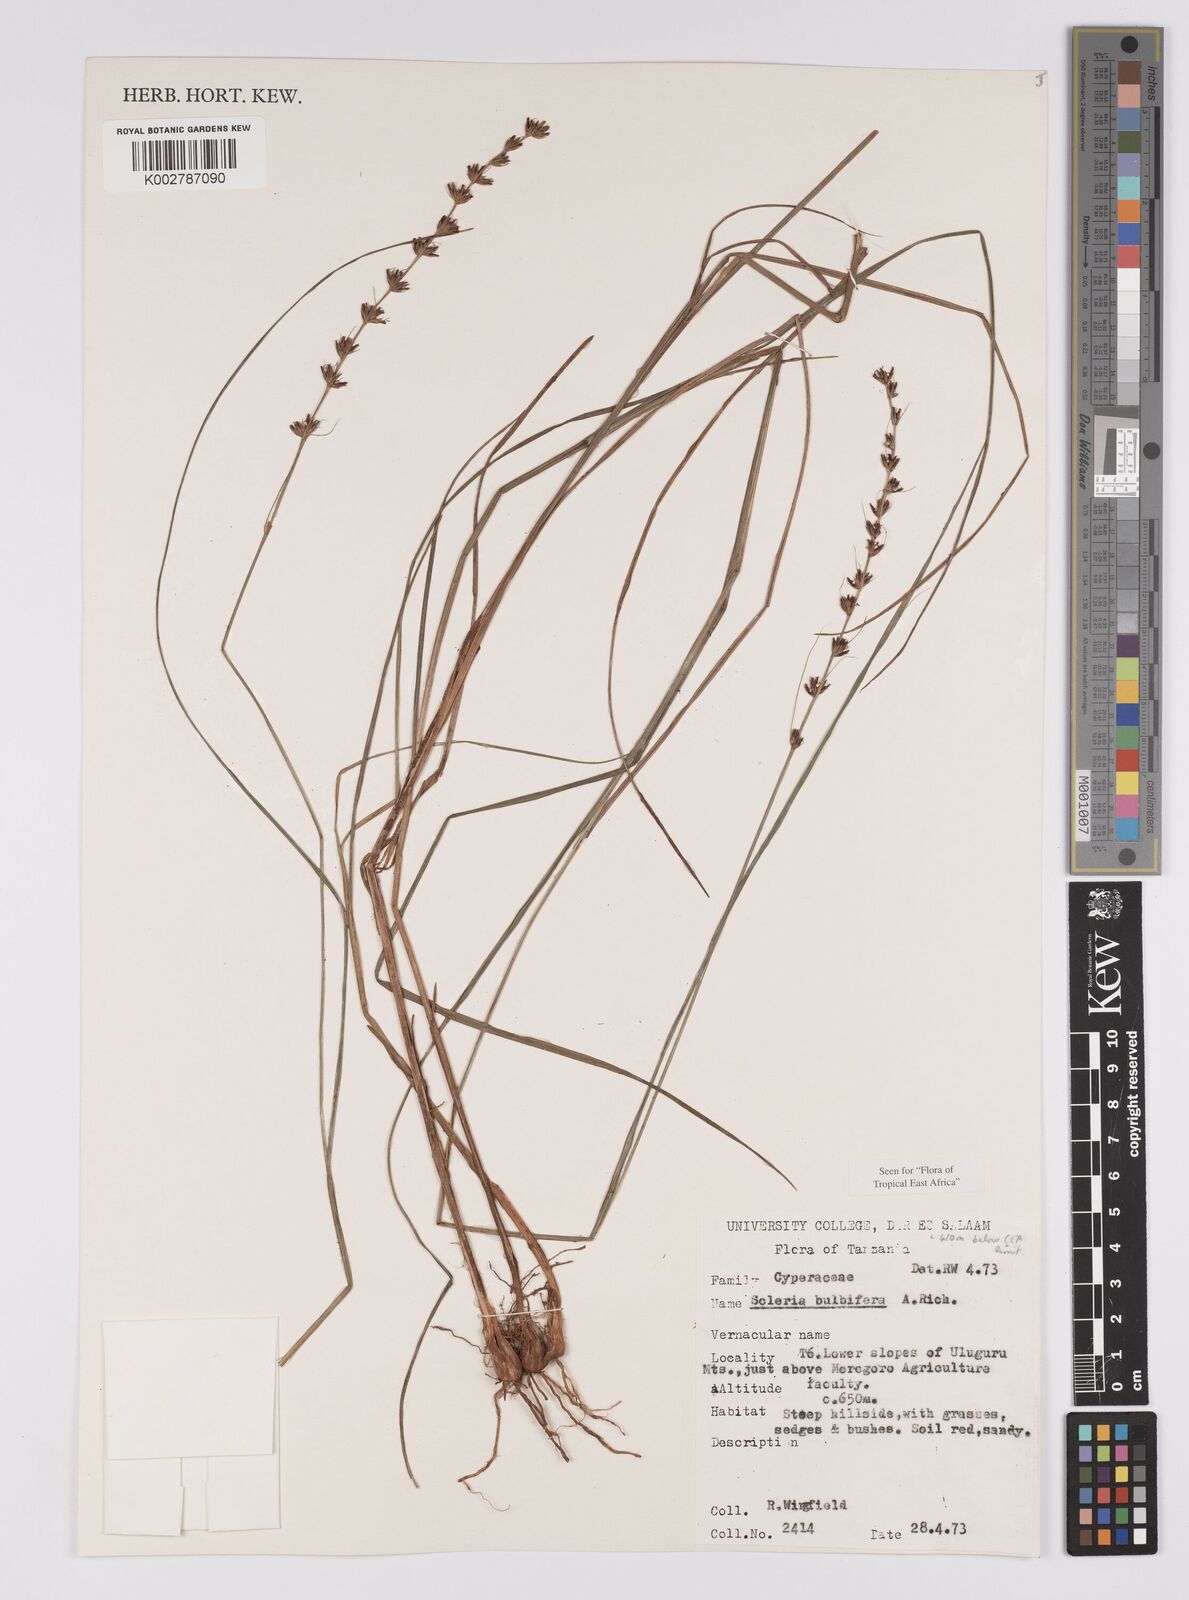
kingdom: Plantae
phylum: Tracheophyta
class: Liliopsida
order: Poales
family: Cyperaceae
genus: Scleria
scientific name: Scleria bulbifera
